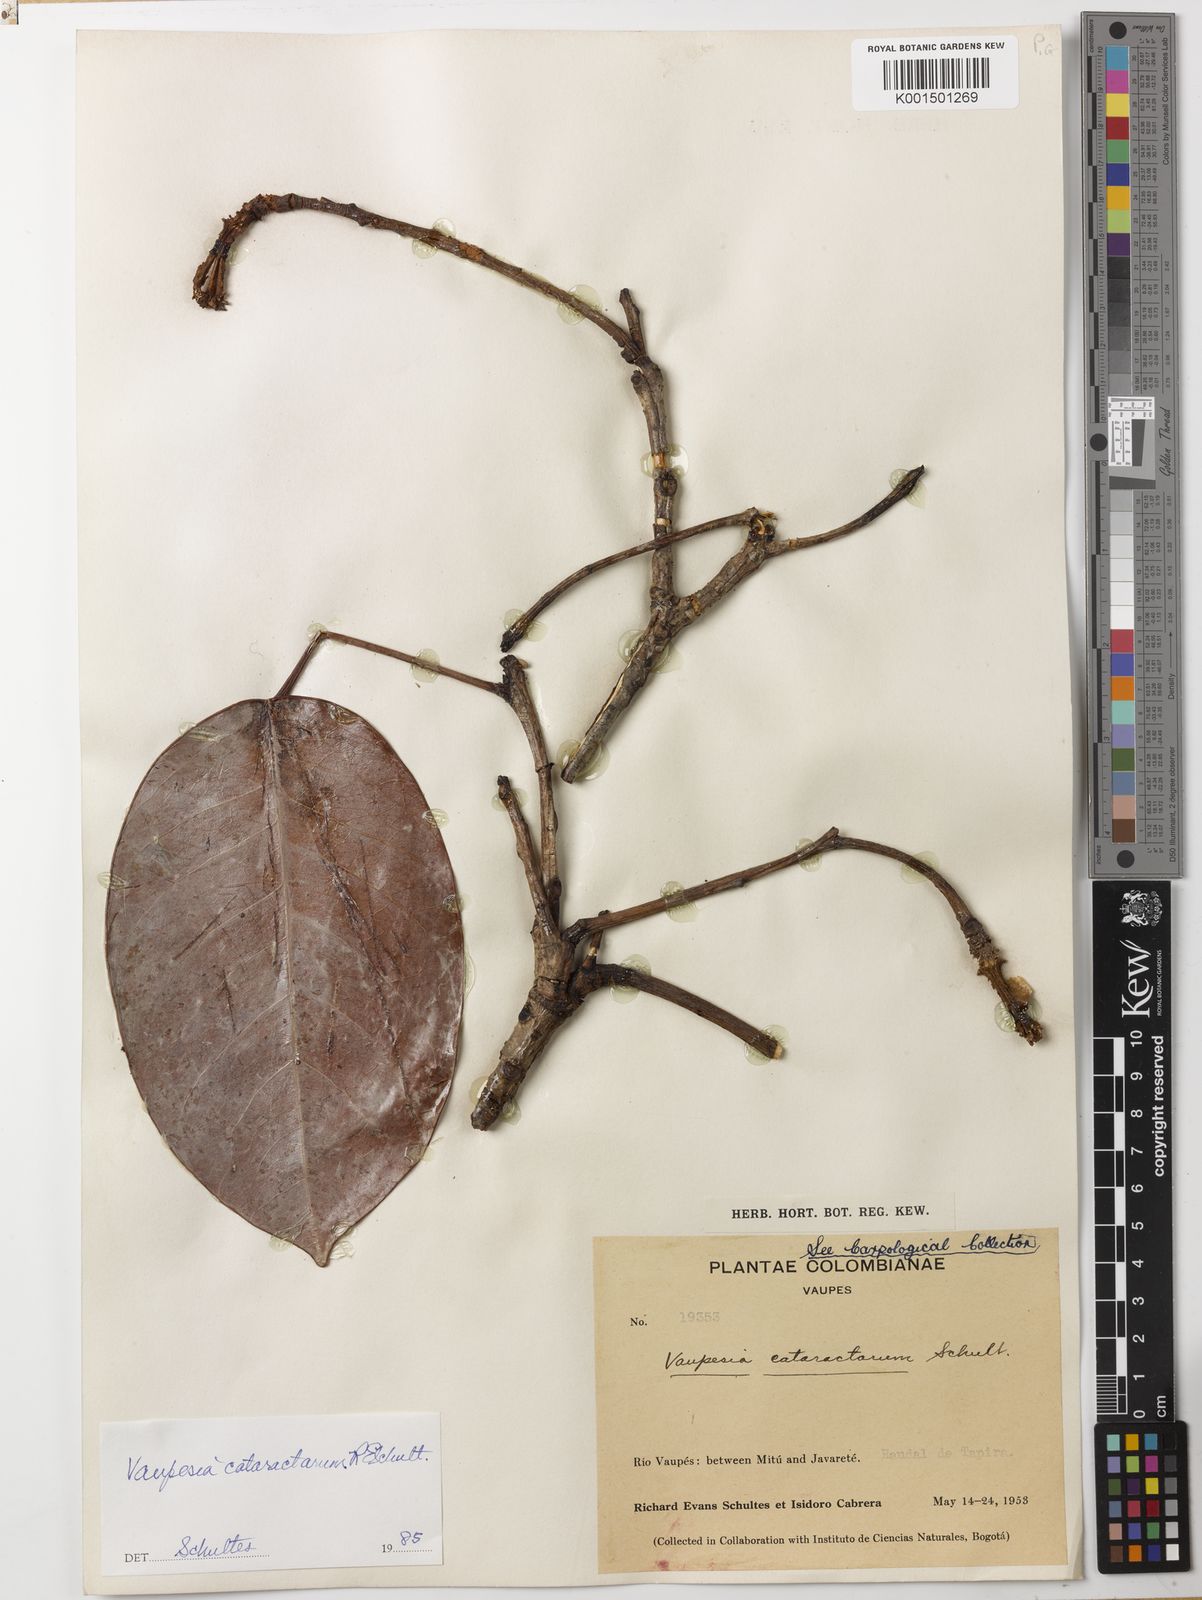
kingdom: Plantae
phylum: Tracheophyta
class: Magnoliopsida
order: Malpighiales
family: Euphorbiaceae
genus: Vaupesia
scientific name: Vaupesia cataractarum
